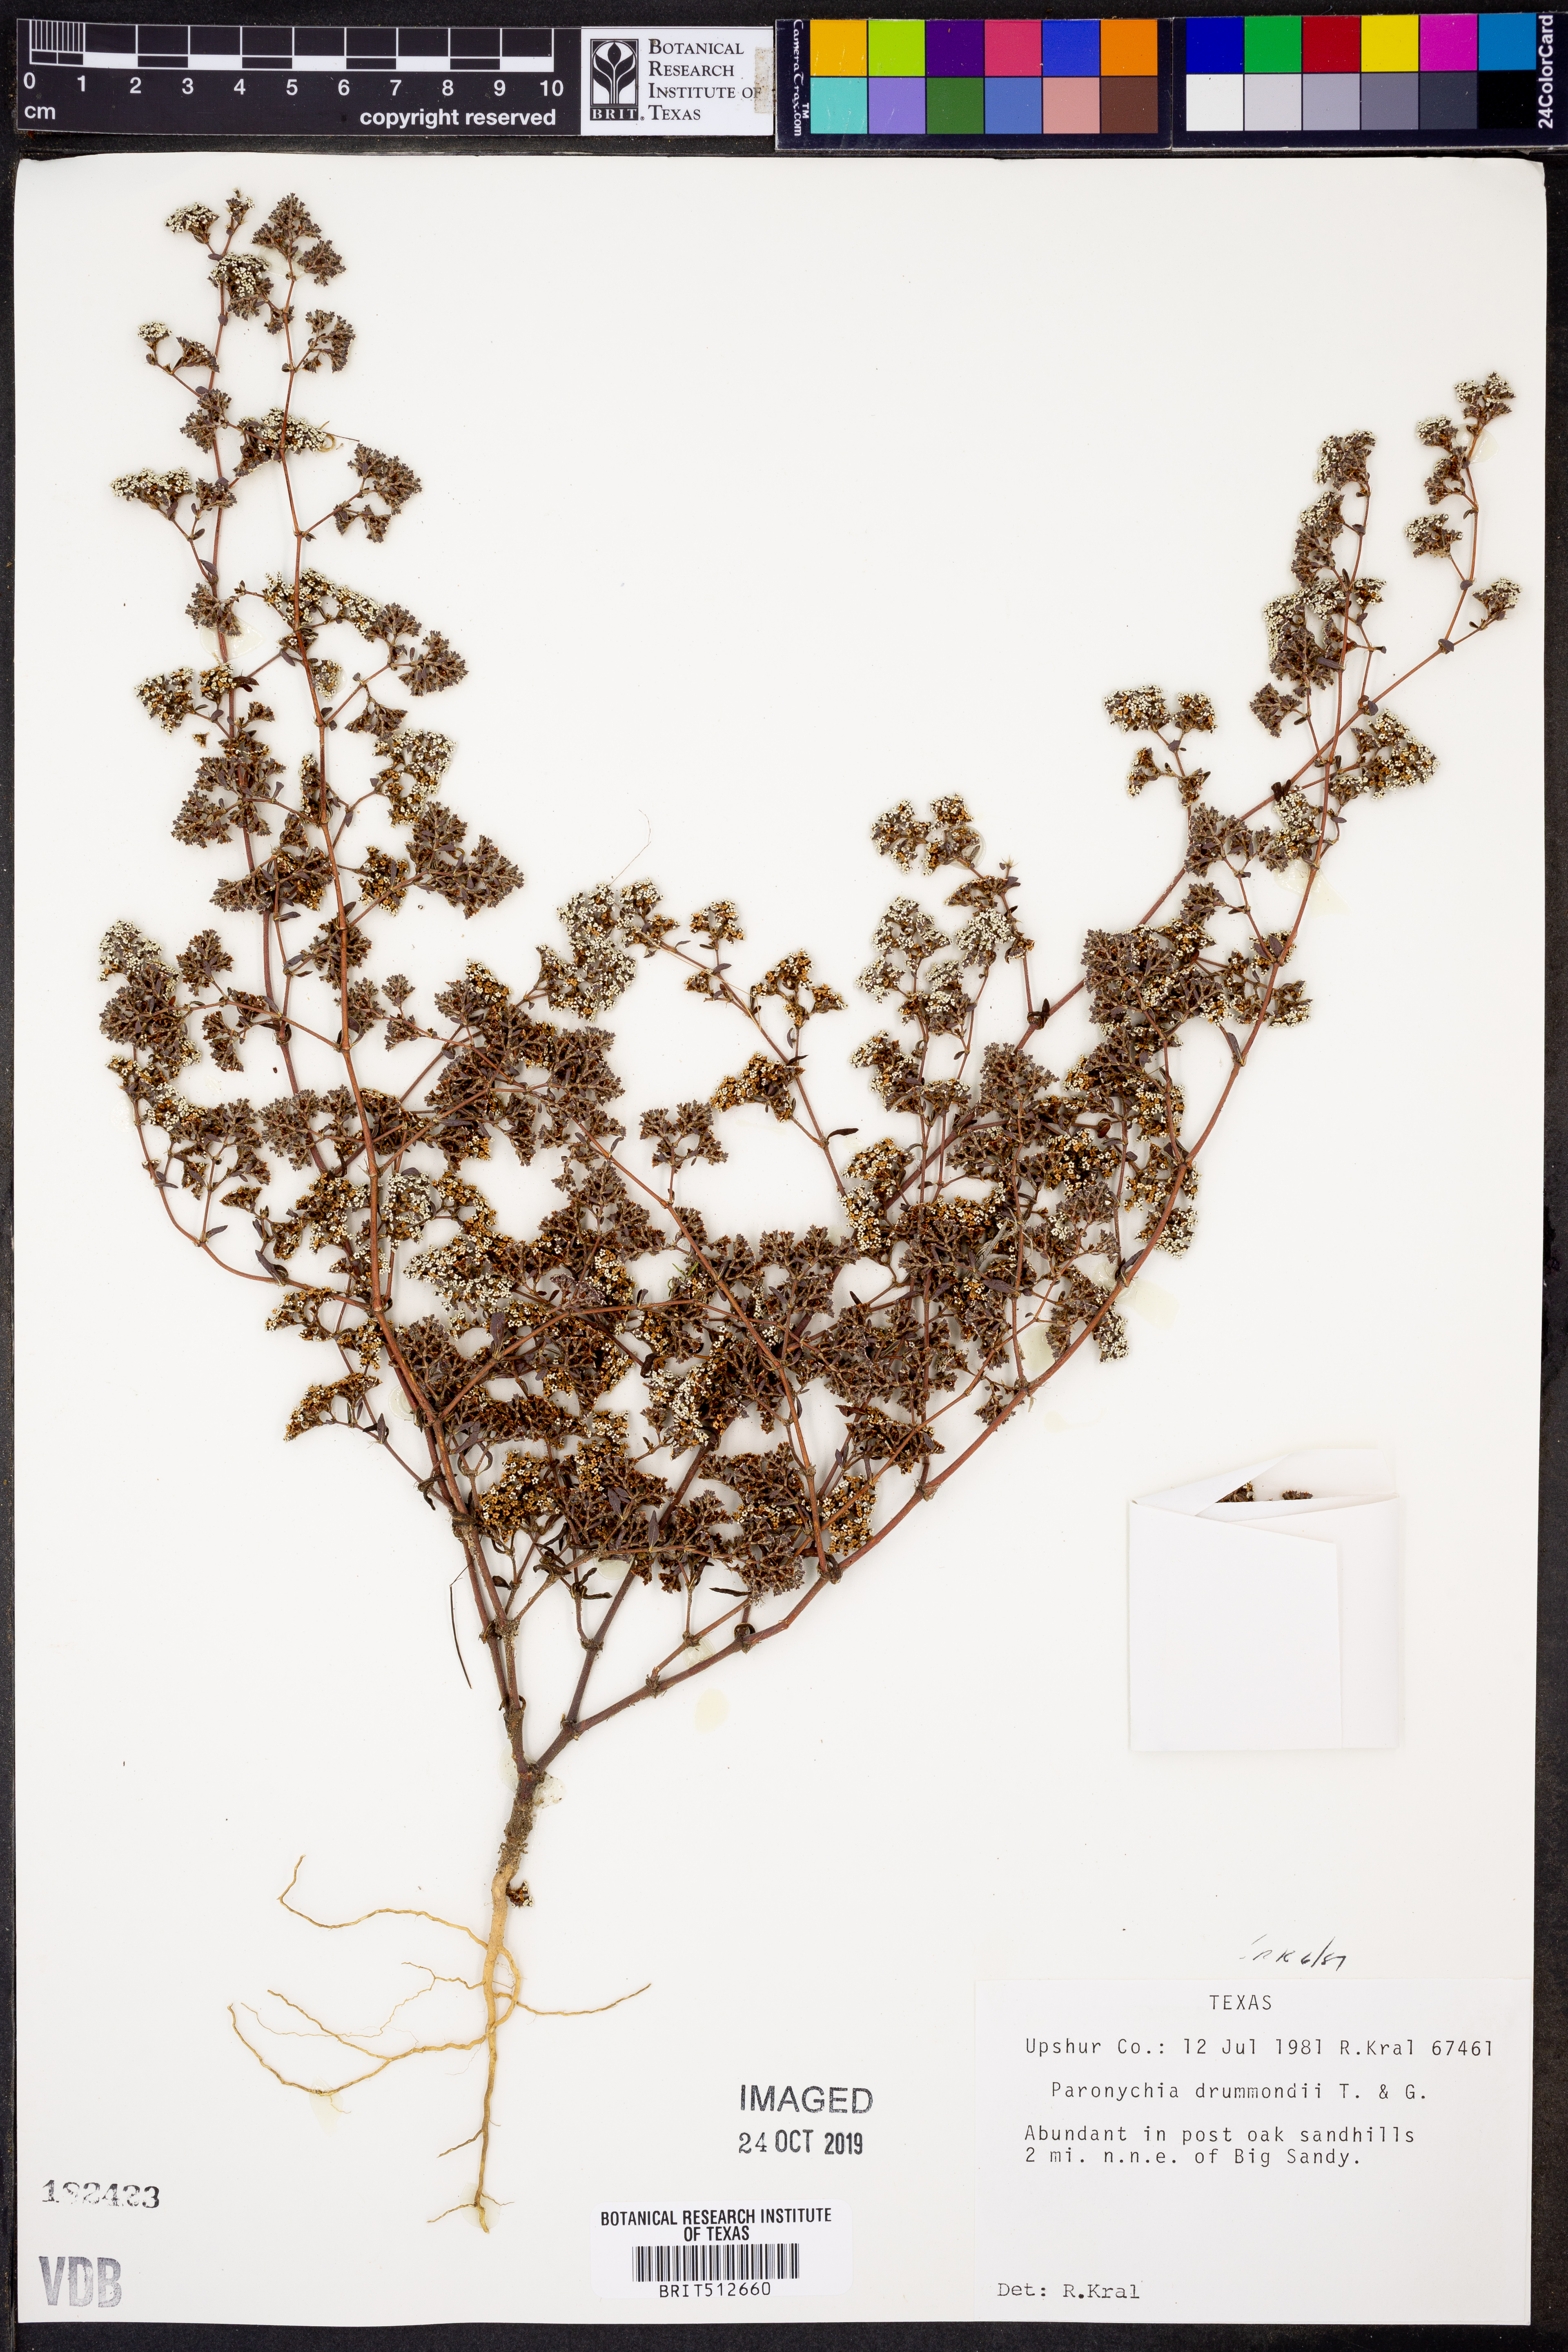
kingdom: Plantae
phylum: Tracheophyta
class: Magnoliopsida
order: Caryophyllales
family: Caryophyllaceae
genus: Paronychia
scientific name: Paronychia drummondii
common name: Drummond's nailwort
